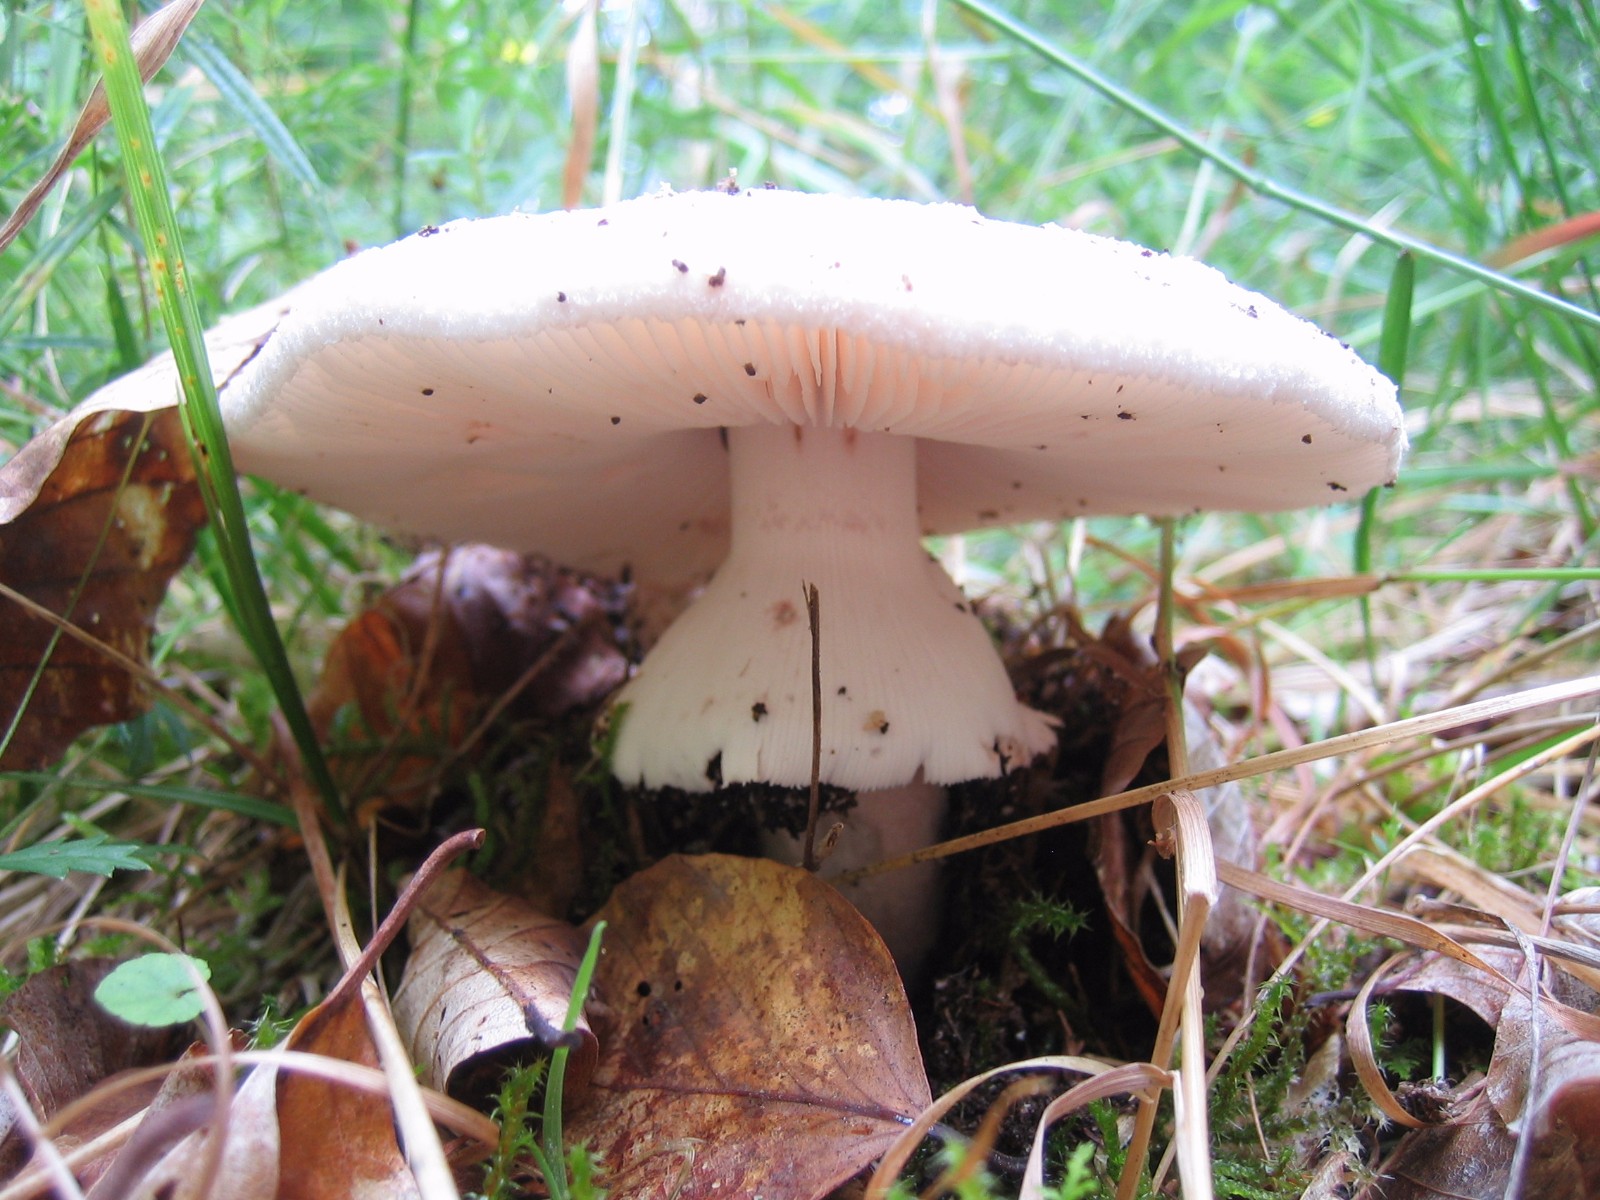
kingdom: Fungi
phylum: Basidiomycota
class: Agaricomycetes
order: Agaricales
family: Amanitaceae
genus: Amanita
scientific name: Amanita rubescens
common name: rødmende fluesvamp
